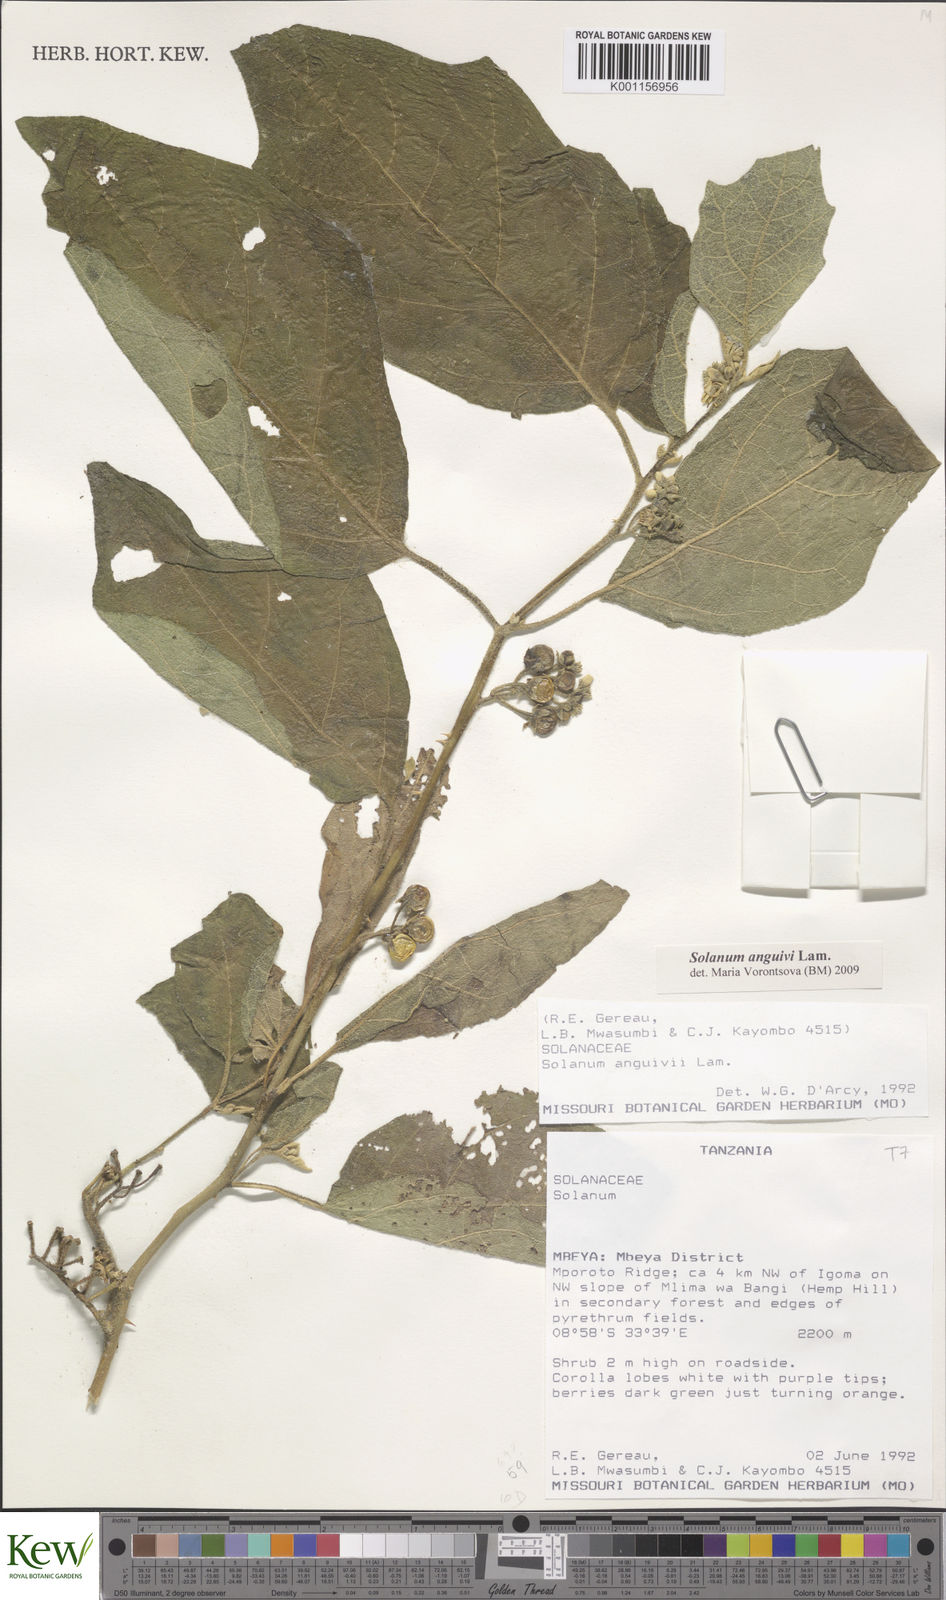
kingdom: Plantae
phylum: Tracheophyta
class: Magnoliopsida
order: Solanales
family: Solanaceae
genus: Solanum
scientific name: Solanum anguivi
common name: Forest bitterberry
